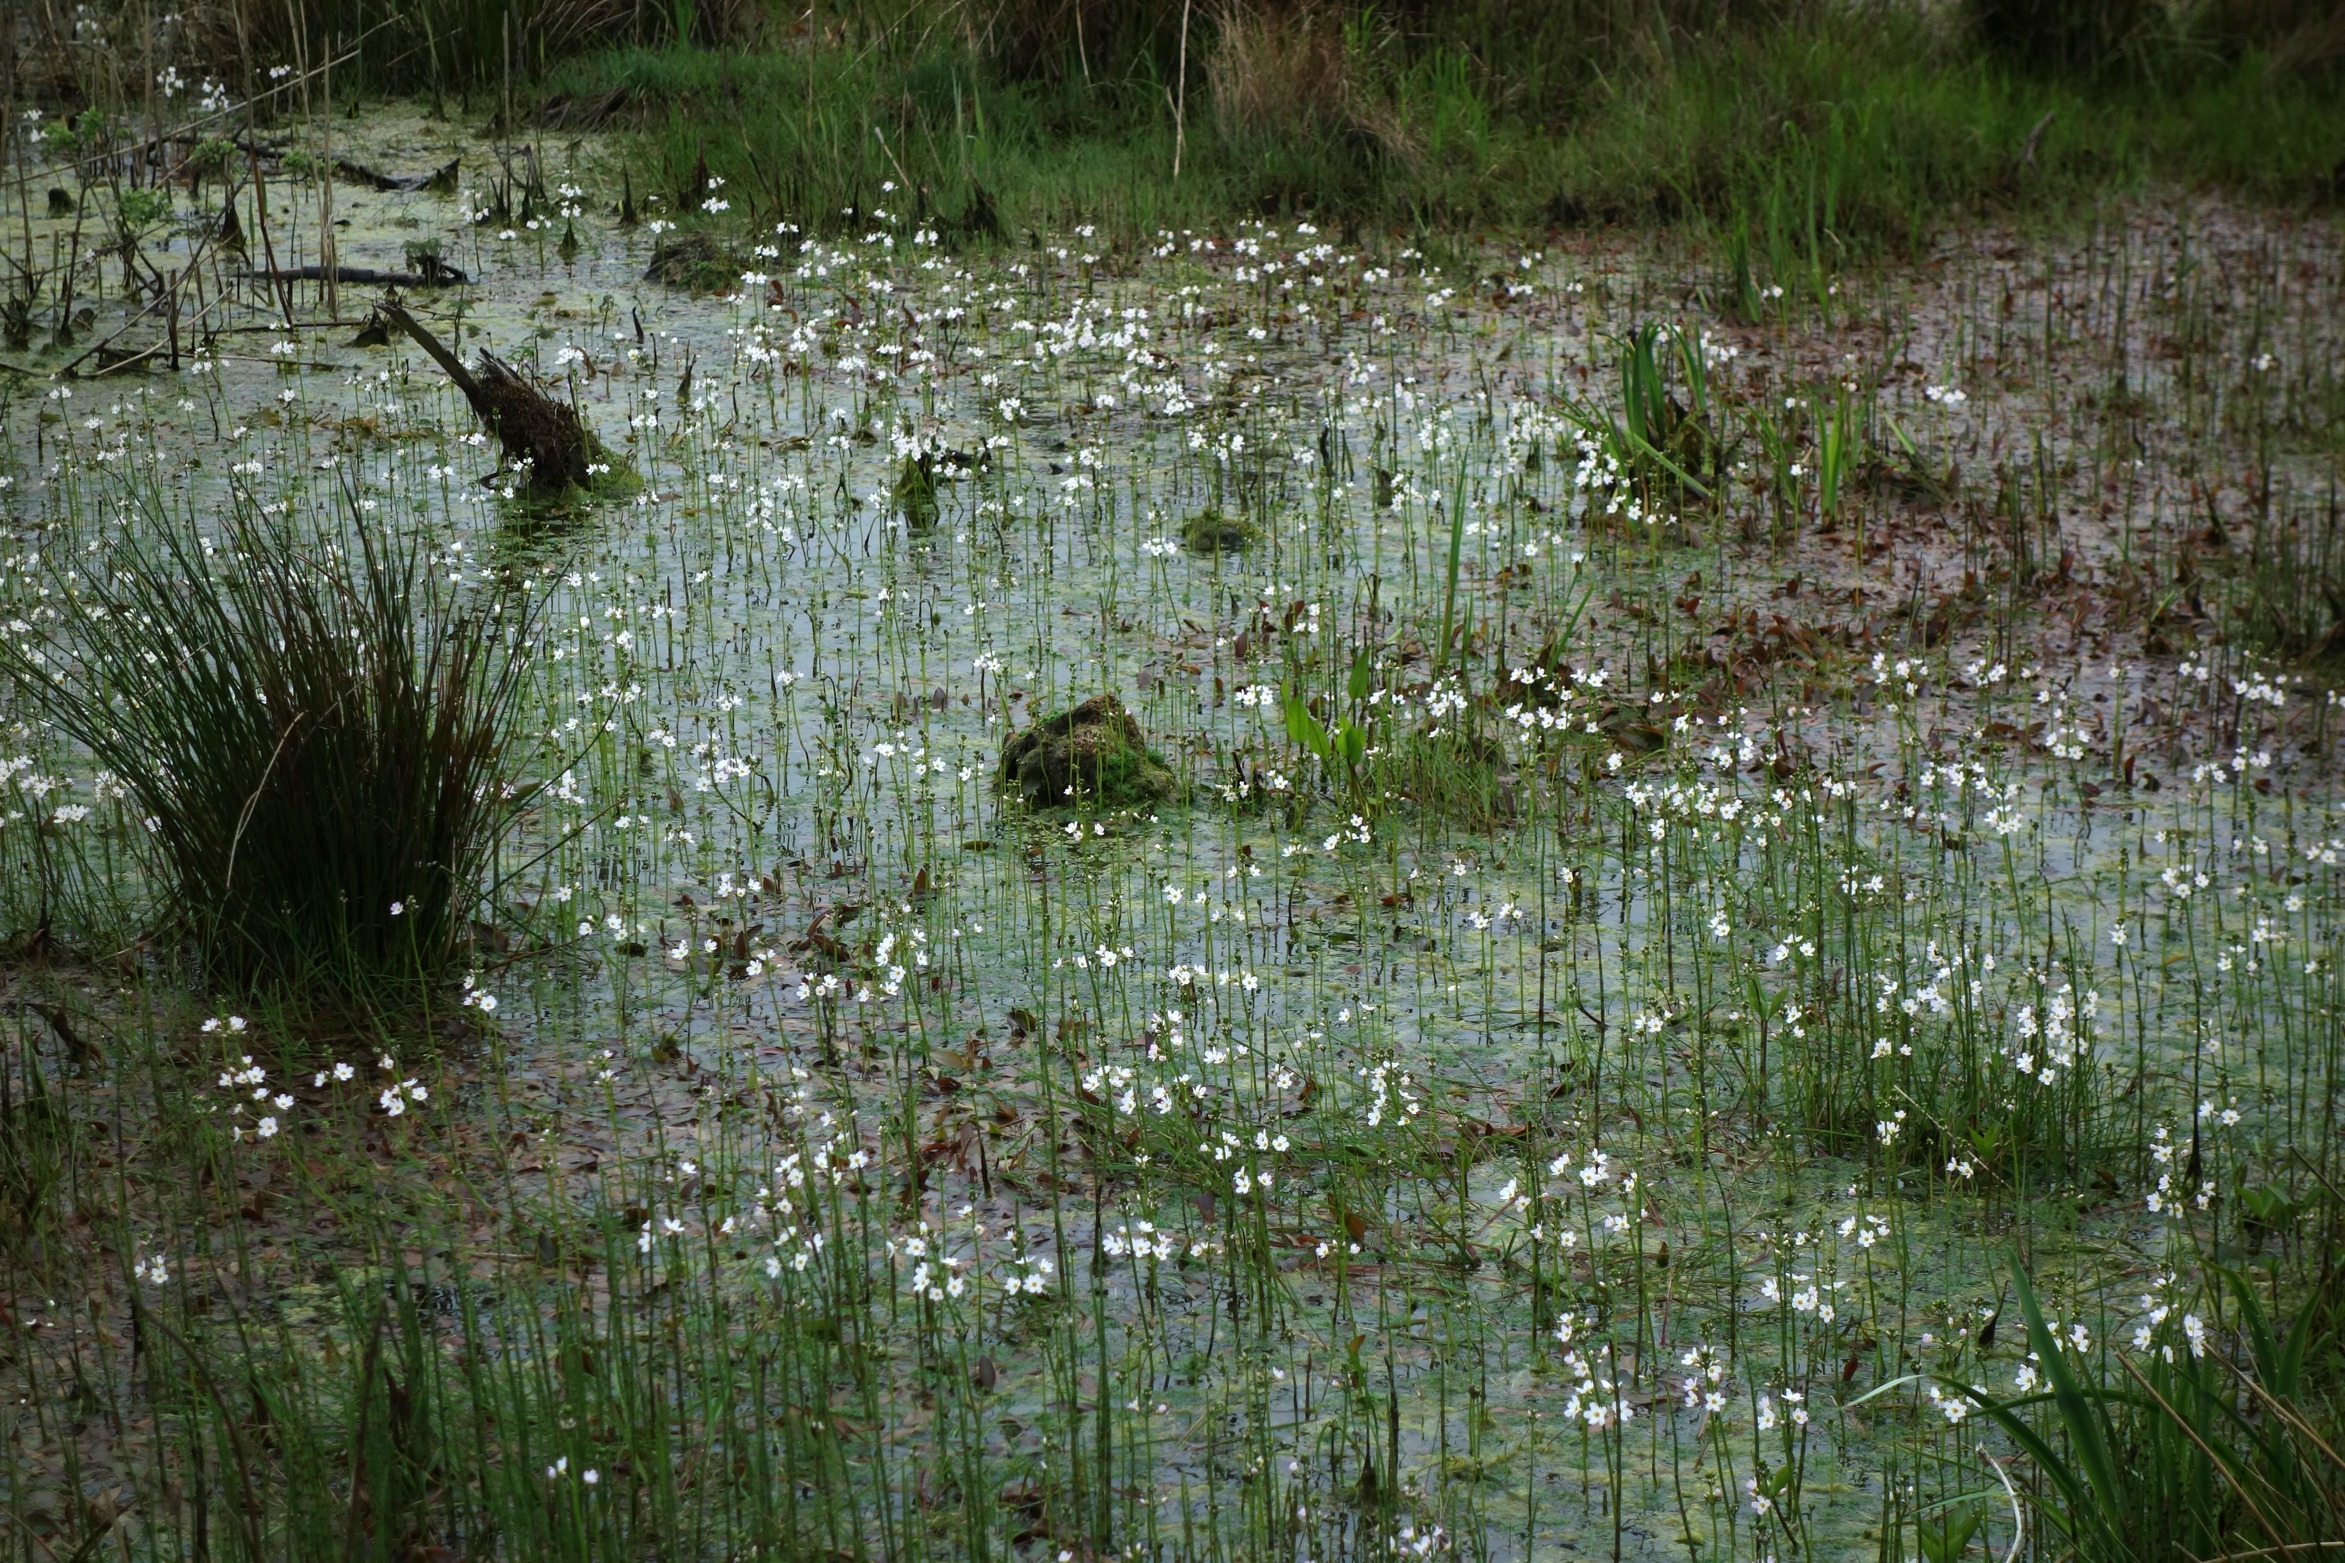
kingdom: Plantae
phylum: Tracheophyta
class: Magnoliopsida
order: Ericales
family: Primulaceae
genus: Hottonia
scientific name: Hottonia palustris
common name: Vandrøllike
